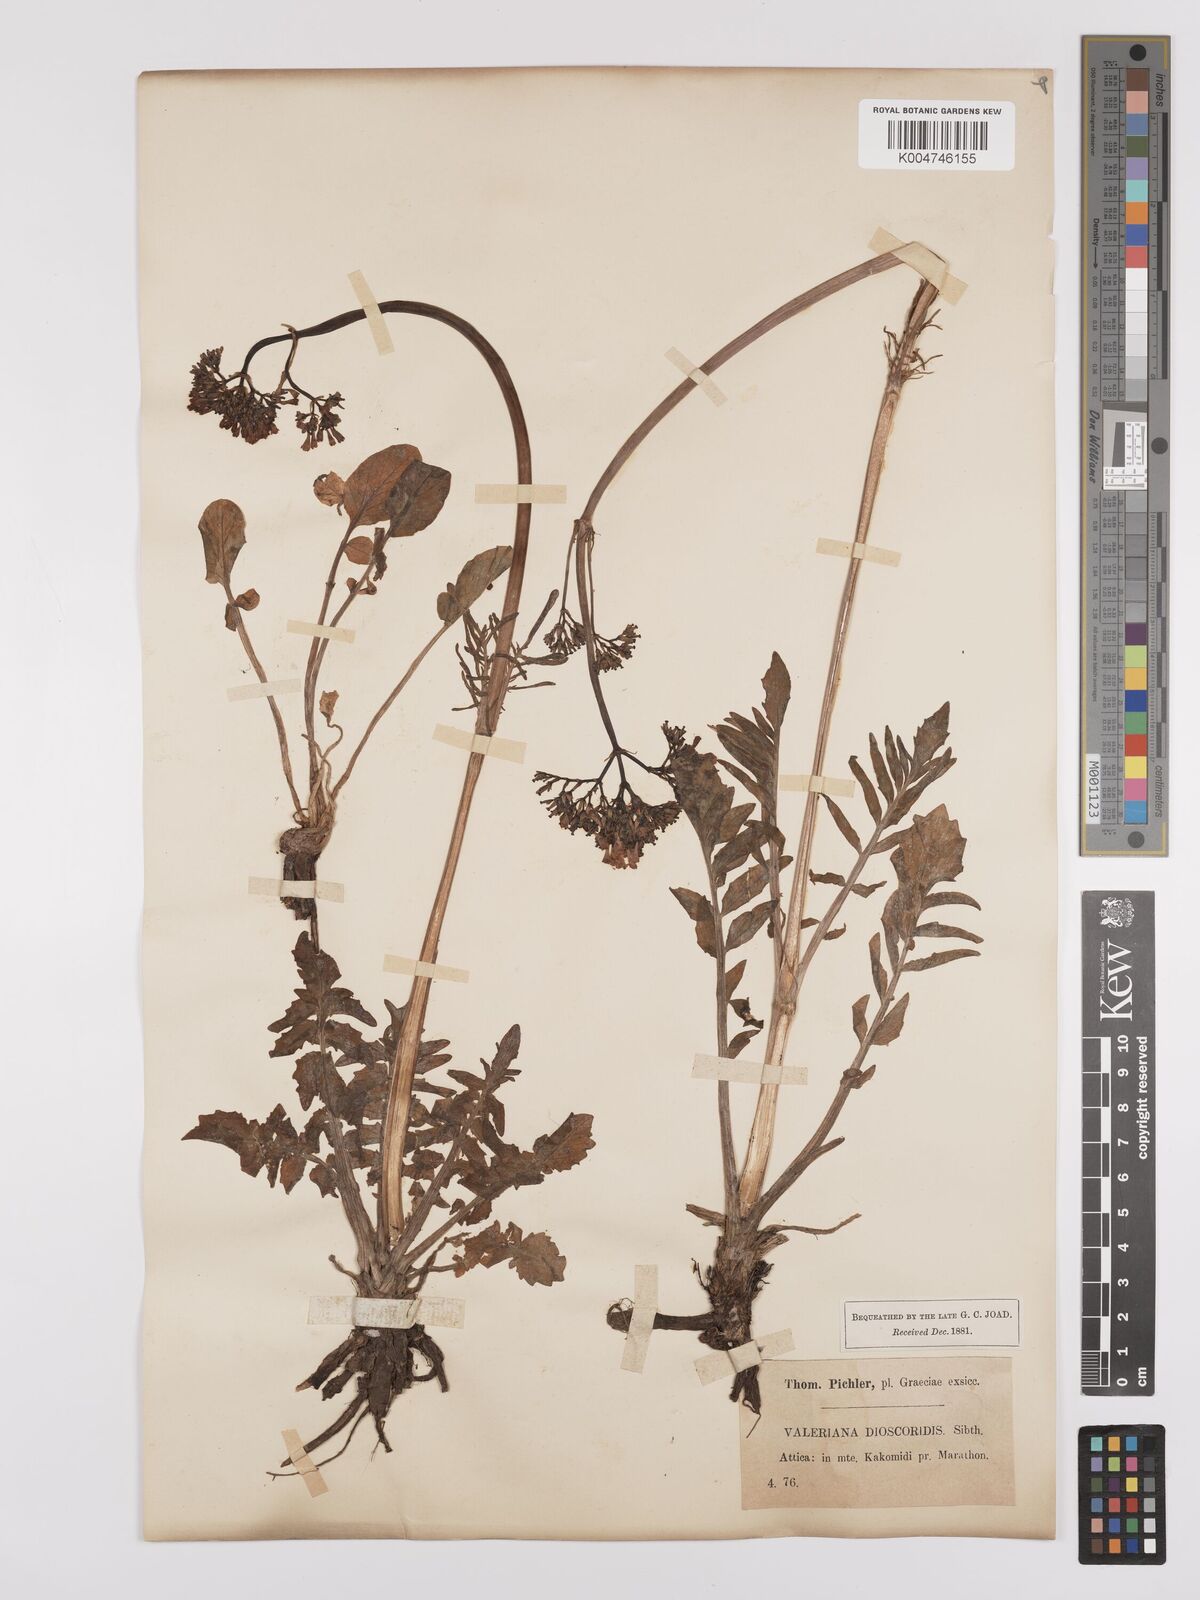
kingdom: Plantae
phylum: Tracheophyta
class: Magnoliopsida
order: Dipsacales
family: Caprifoliaceae
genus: Valeriana
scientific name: Valeriana dioscoridis
